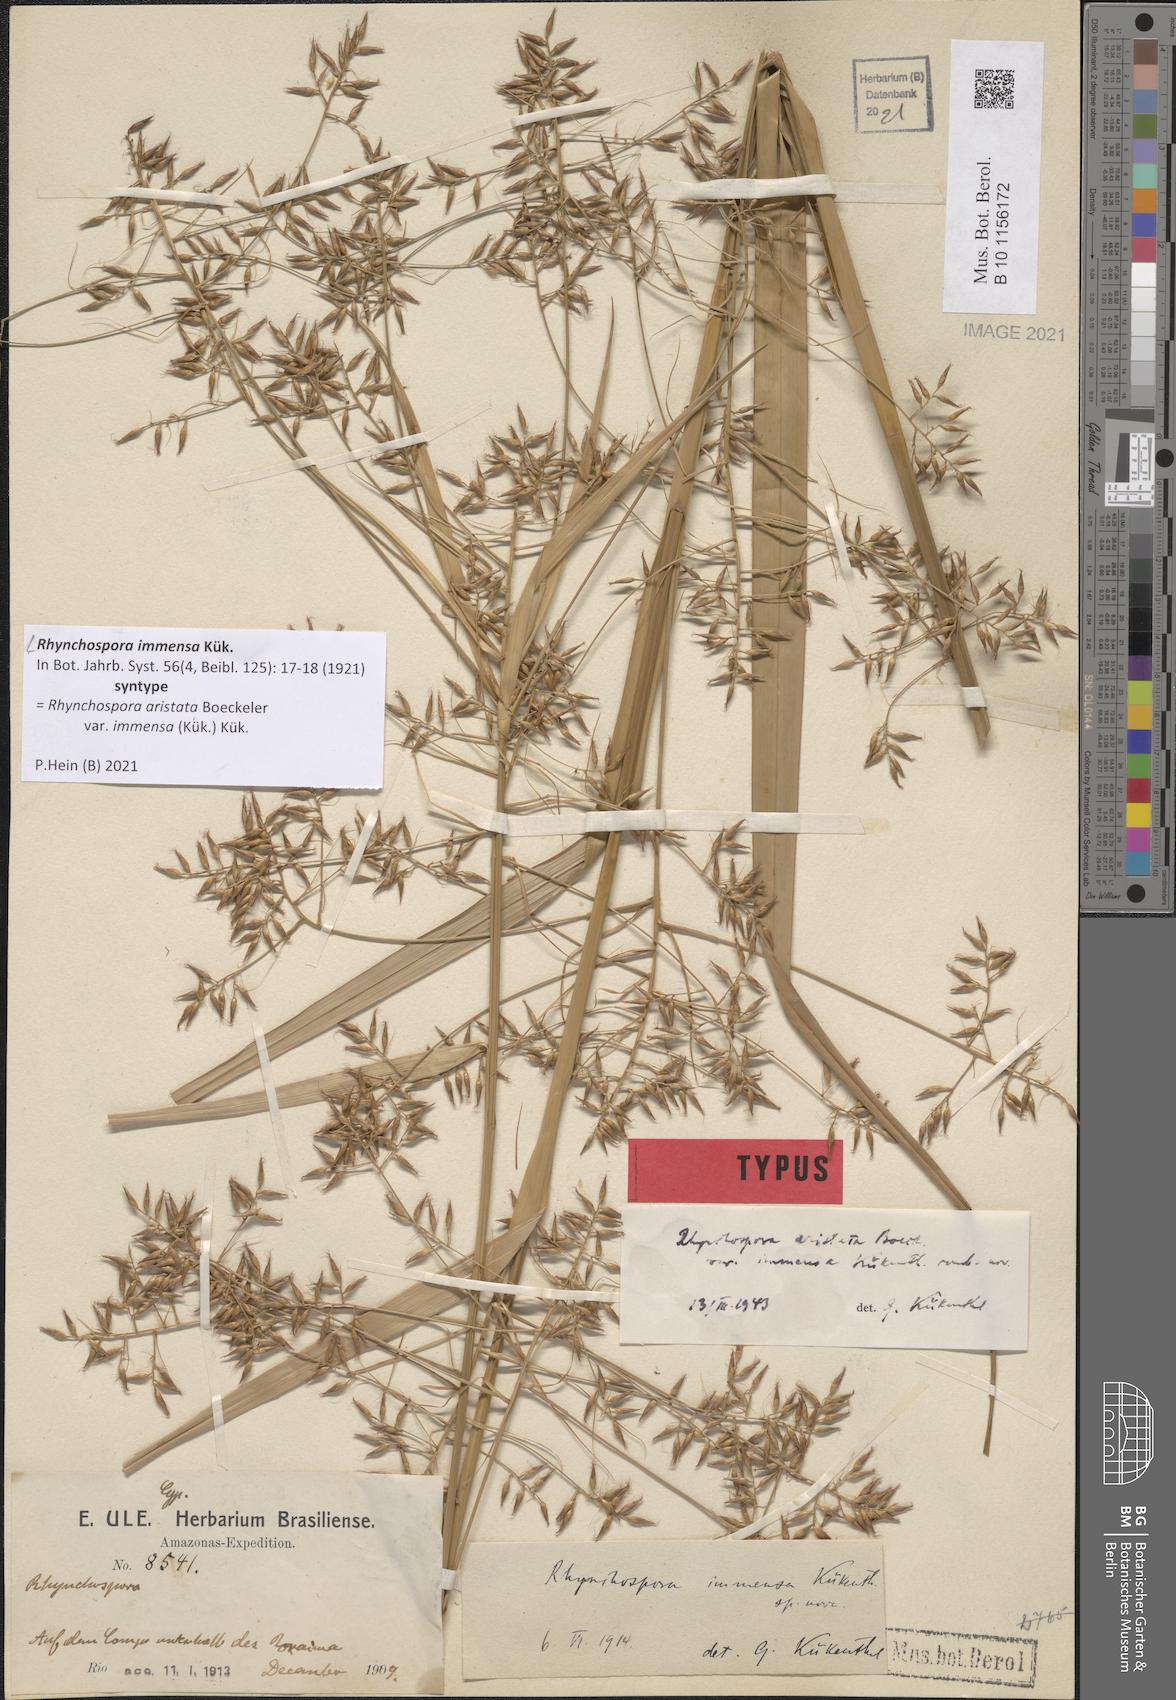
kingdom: Plantae
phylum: Tracheophyta
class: Liliopsida
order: Poales
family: Cyperaceae
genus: Rhynchospora
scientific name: Rhynchospora immensa
